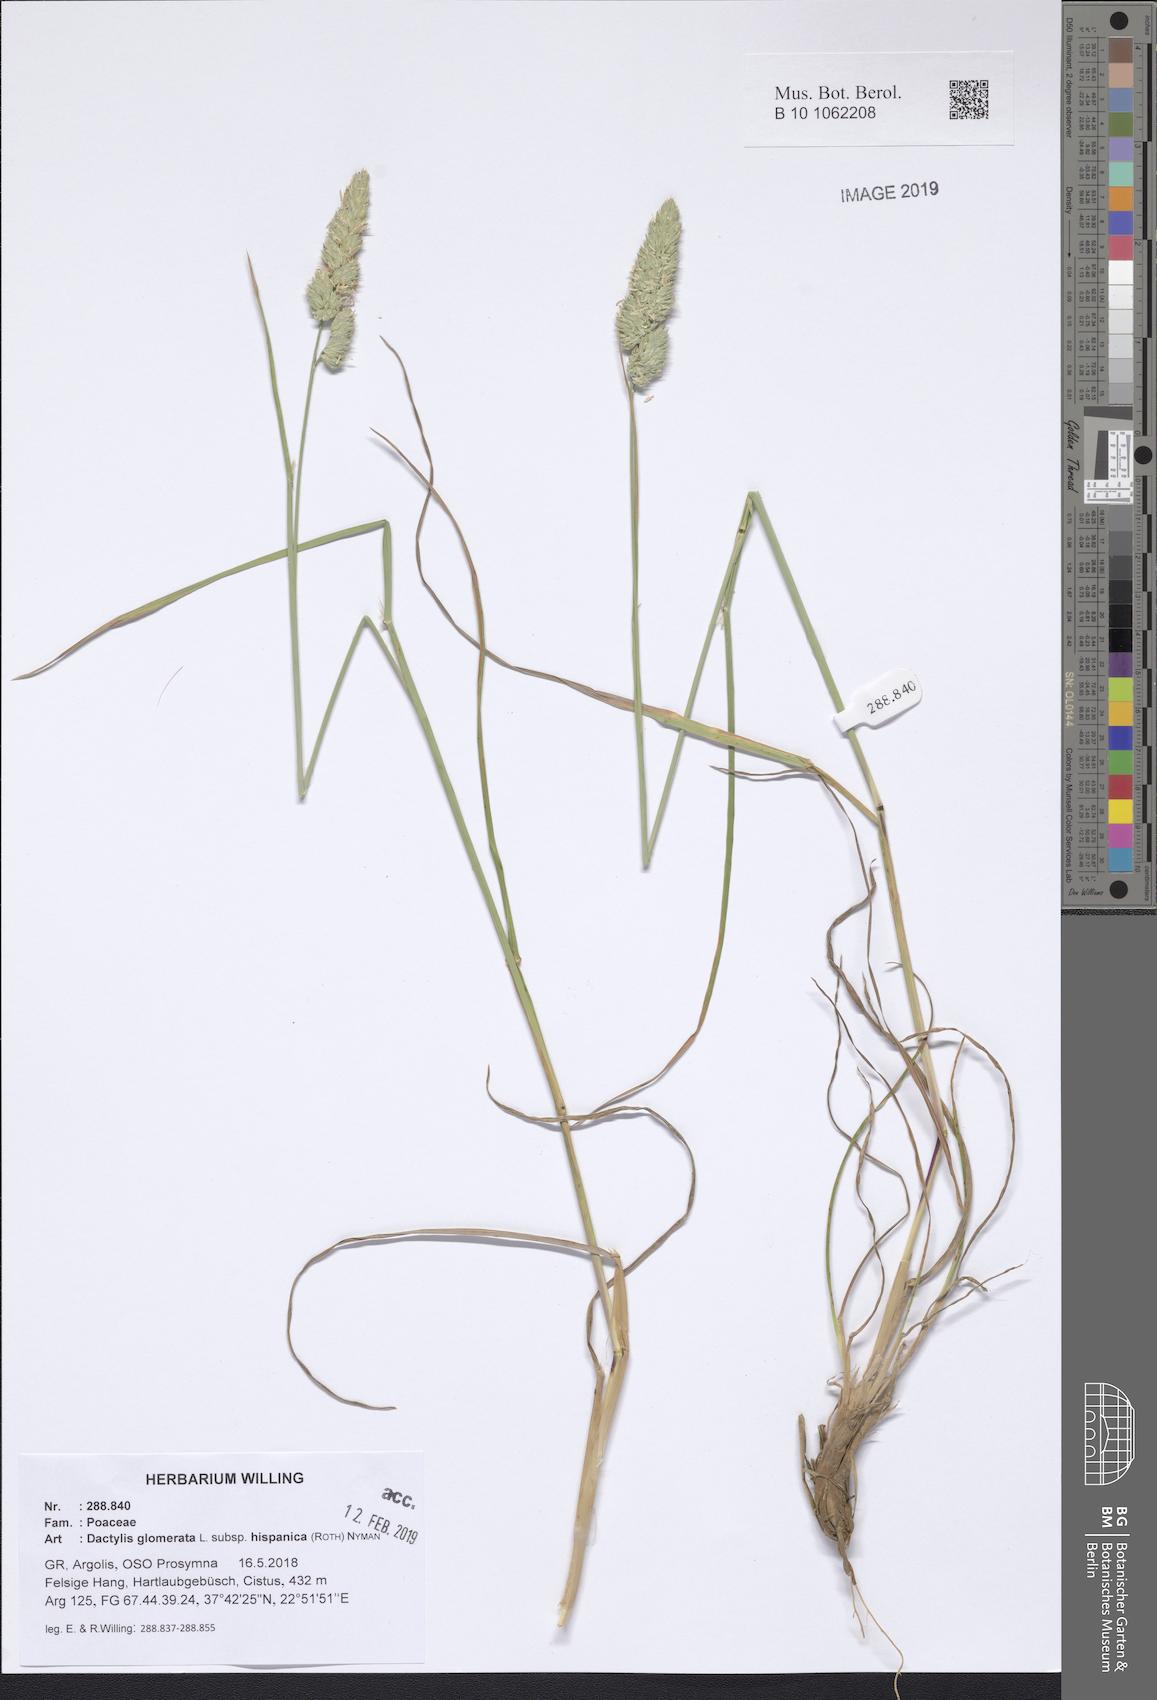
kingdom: Plantae
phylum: Tracheophyta
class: Liliopsida
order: Poales
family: Poaceae
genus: Dactylis
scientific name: Dactylis glomerata
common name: Orchardgrass
